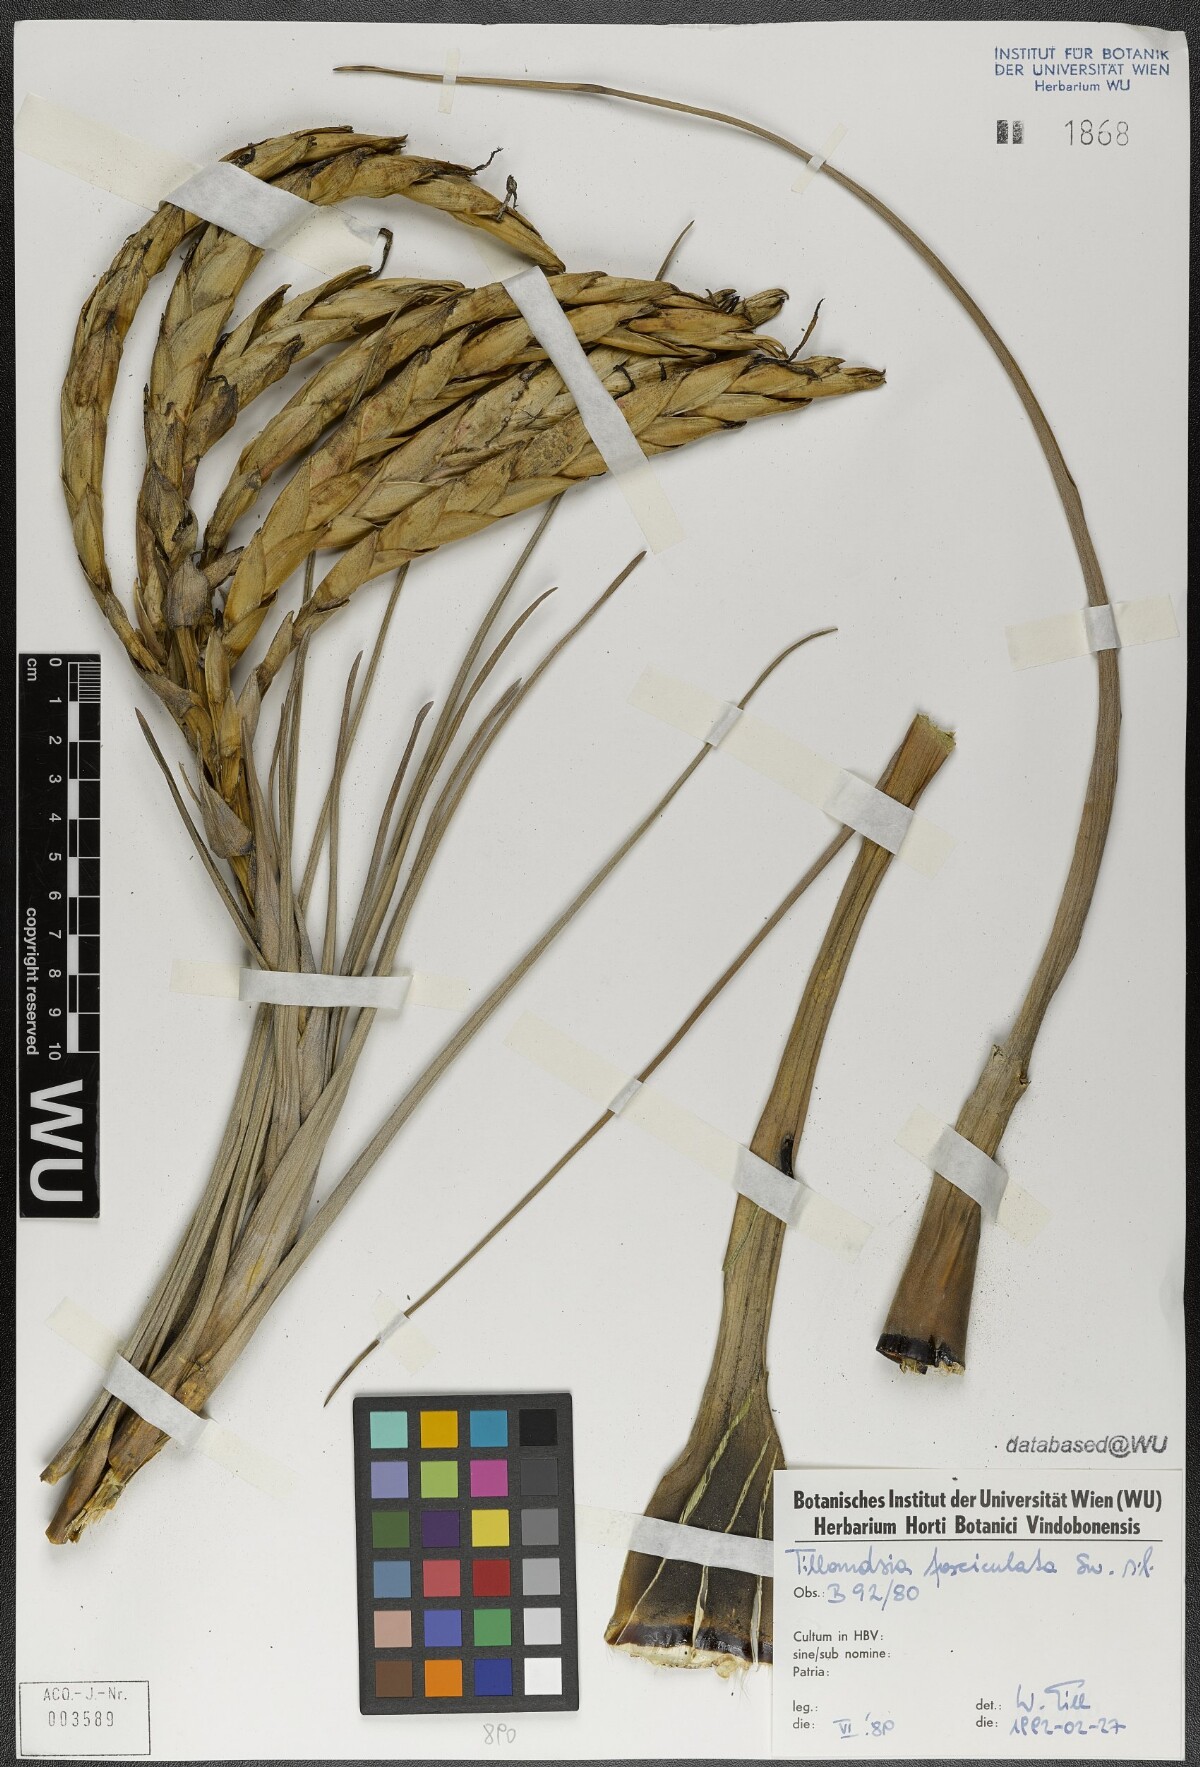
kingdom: Plantae
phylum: Tracheophyta
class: Liliopsida
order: Poales
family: Bromeliaceae
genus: Tillandsia
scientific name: Tillandsia fasciculata
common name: Giant airplant
